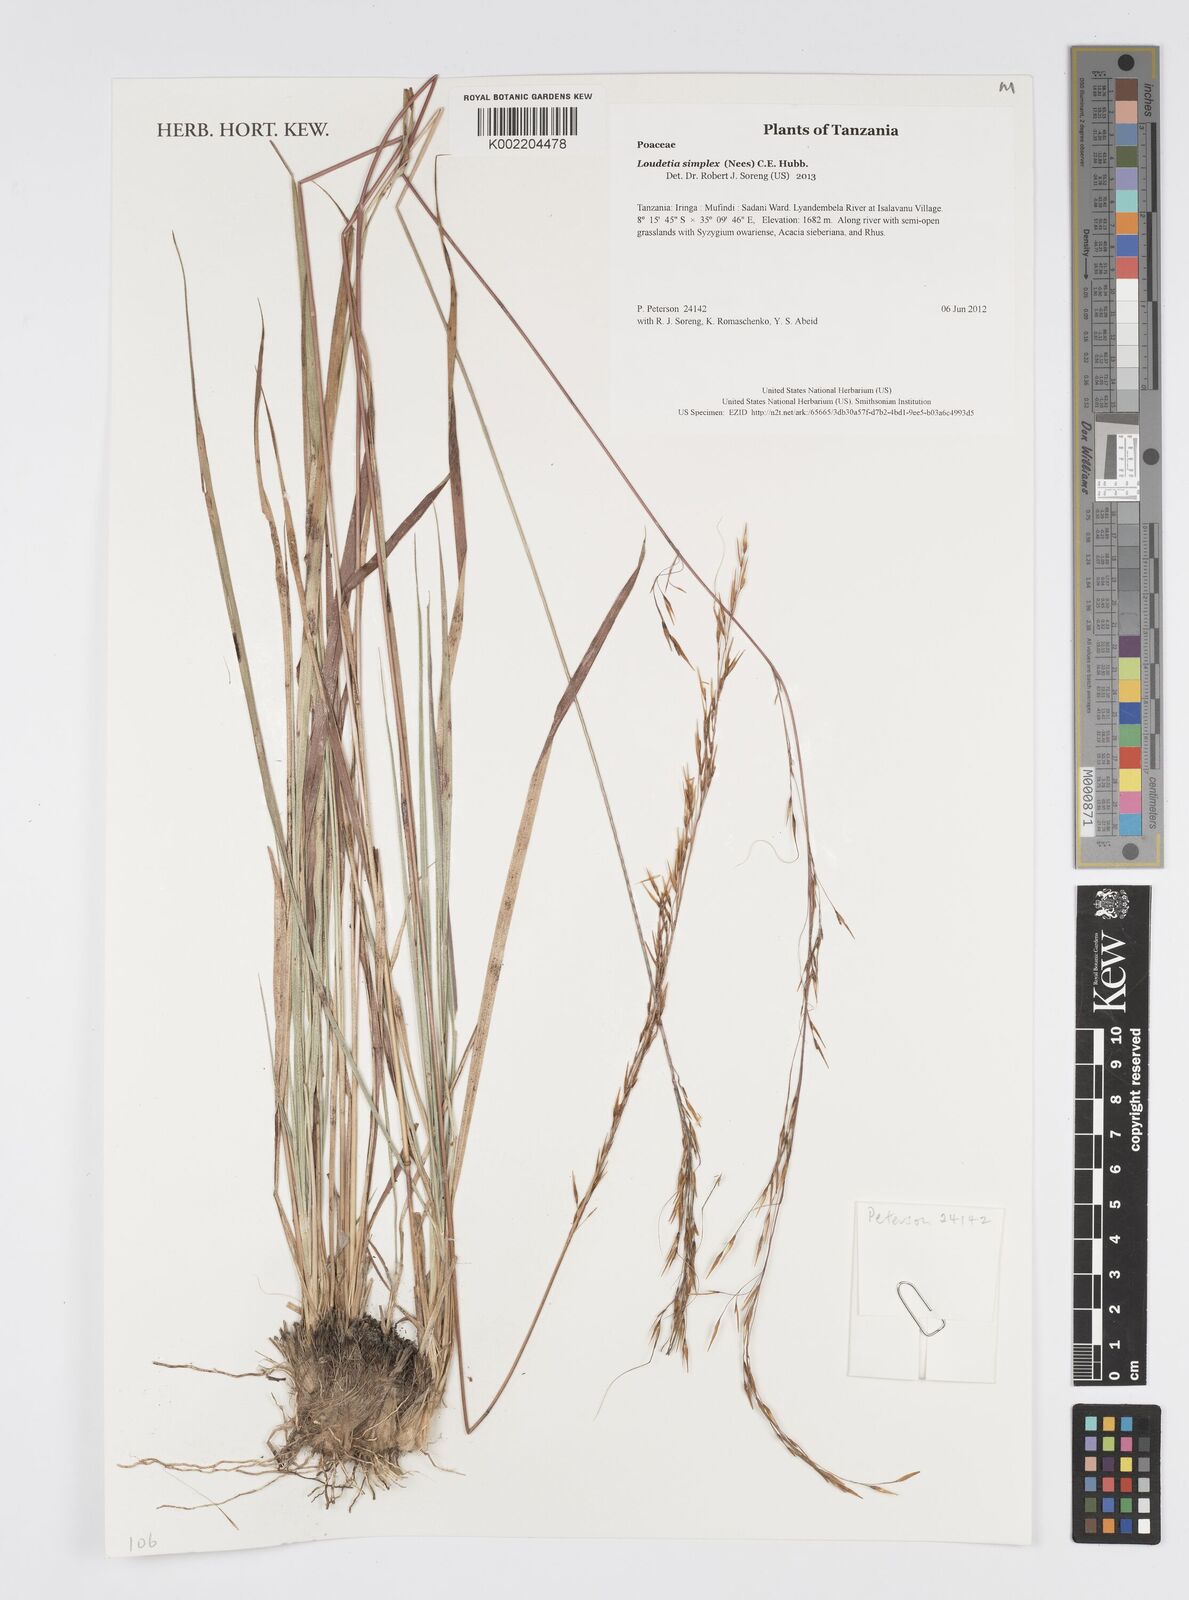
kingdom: Plantae
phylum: Tracheophyta
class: Liliopsida
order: Poales
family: Poaceae
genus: Loudetia
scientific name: Loudetia simplex
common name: Common russet grass
